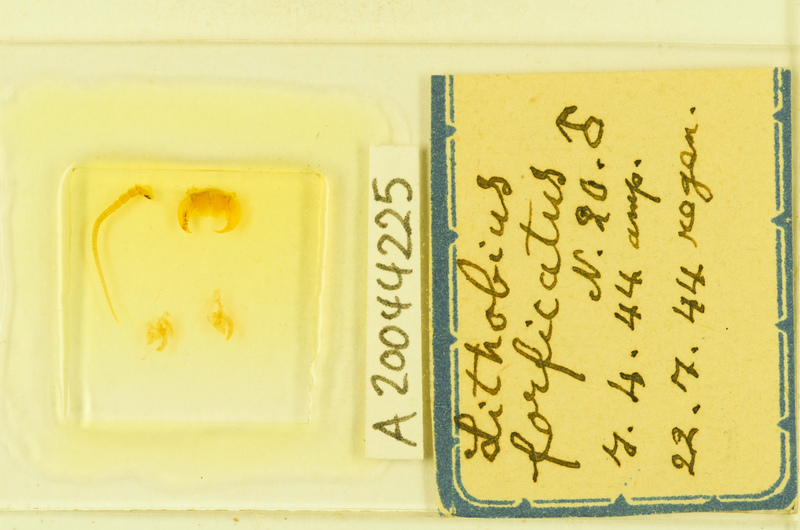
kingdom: Animalia
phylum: Arthropoda
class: Chilopoda
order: Lithobiomorpha
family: Lithobiidae
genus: Lithobius
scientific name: Lithobius forficatus
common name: Centipede
